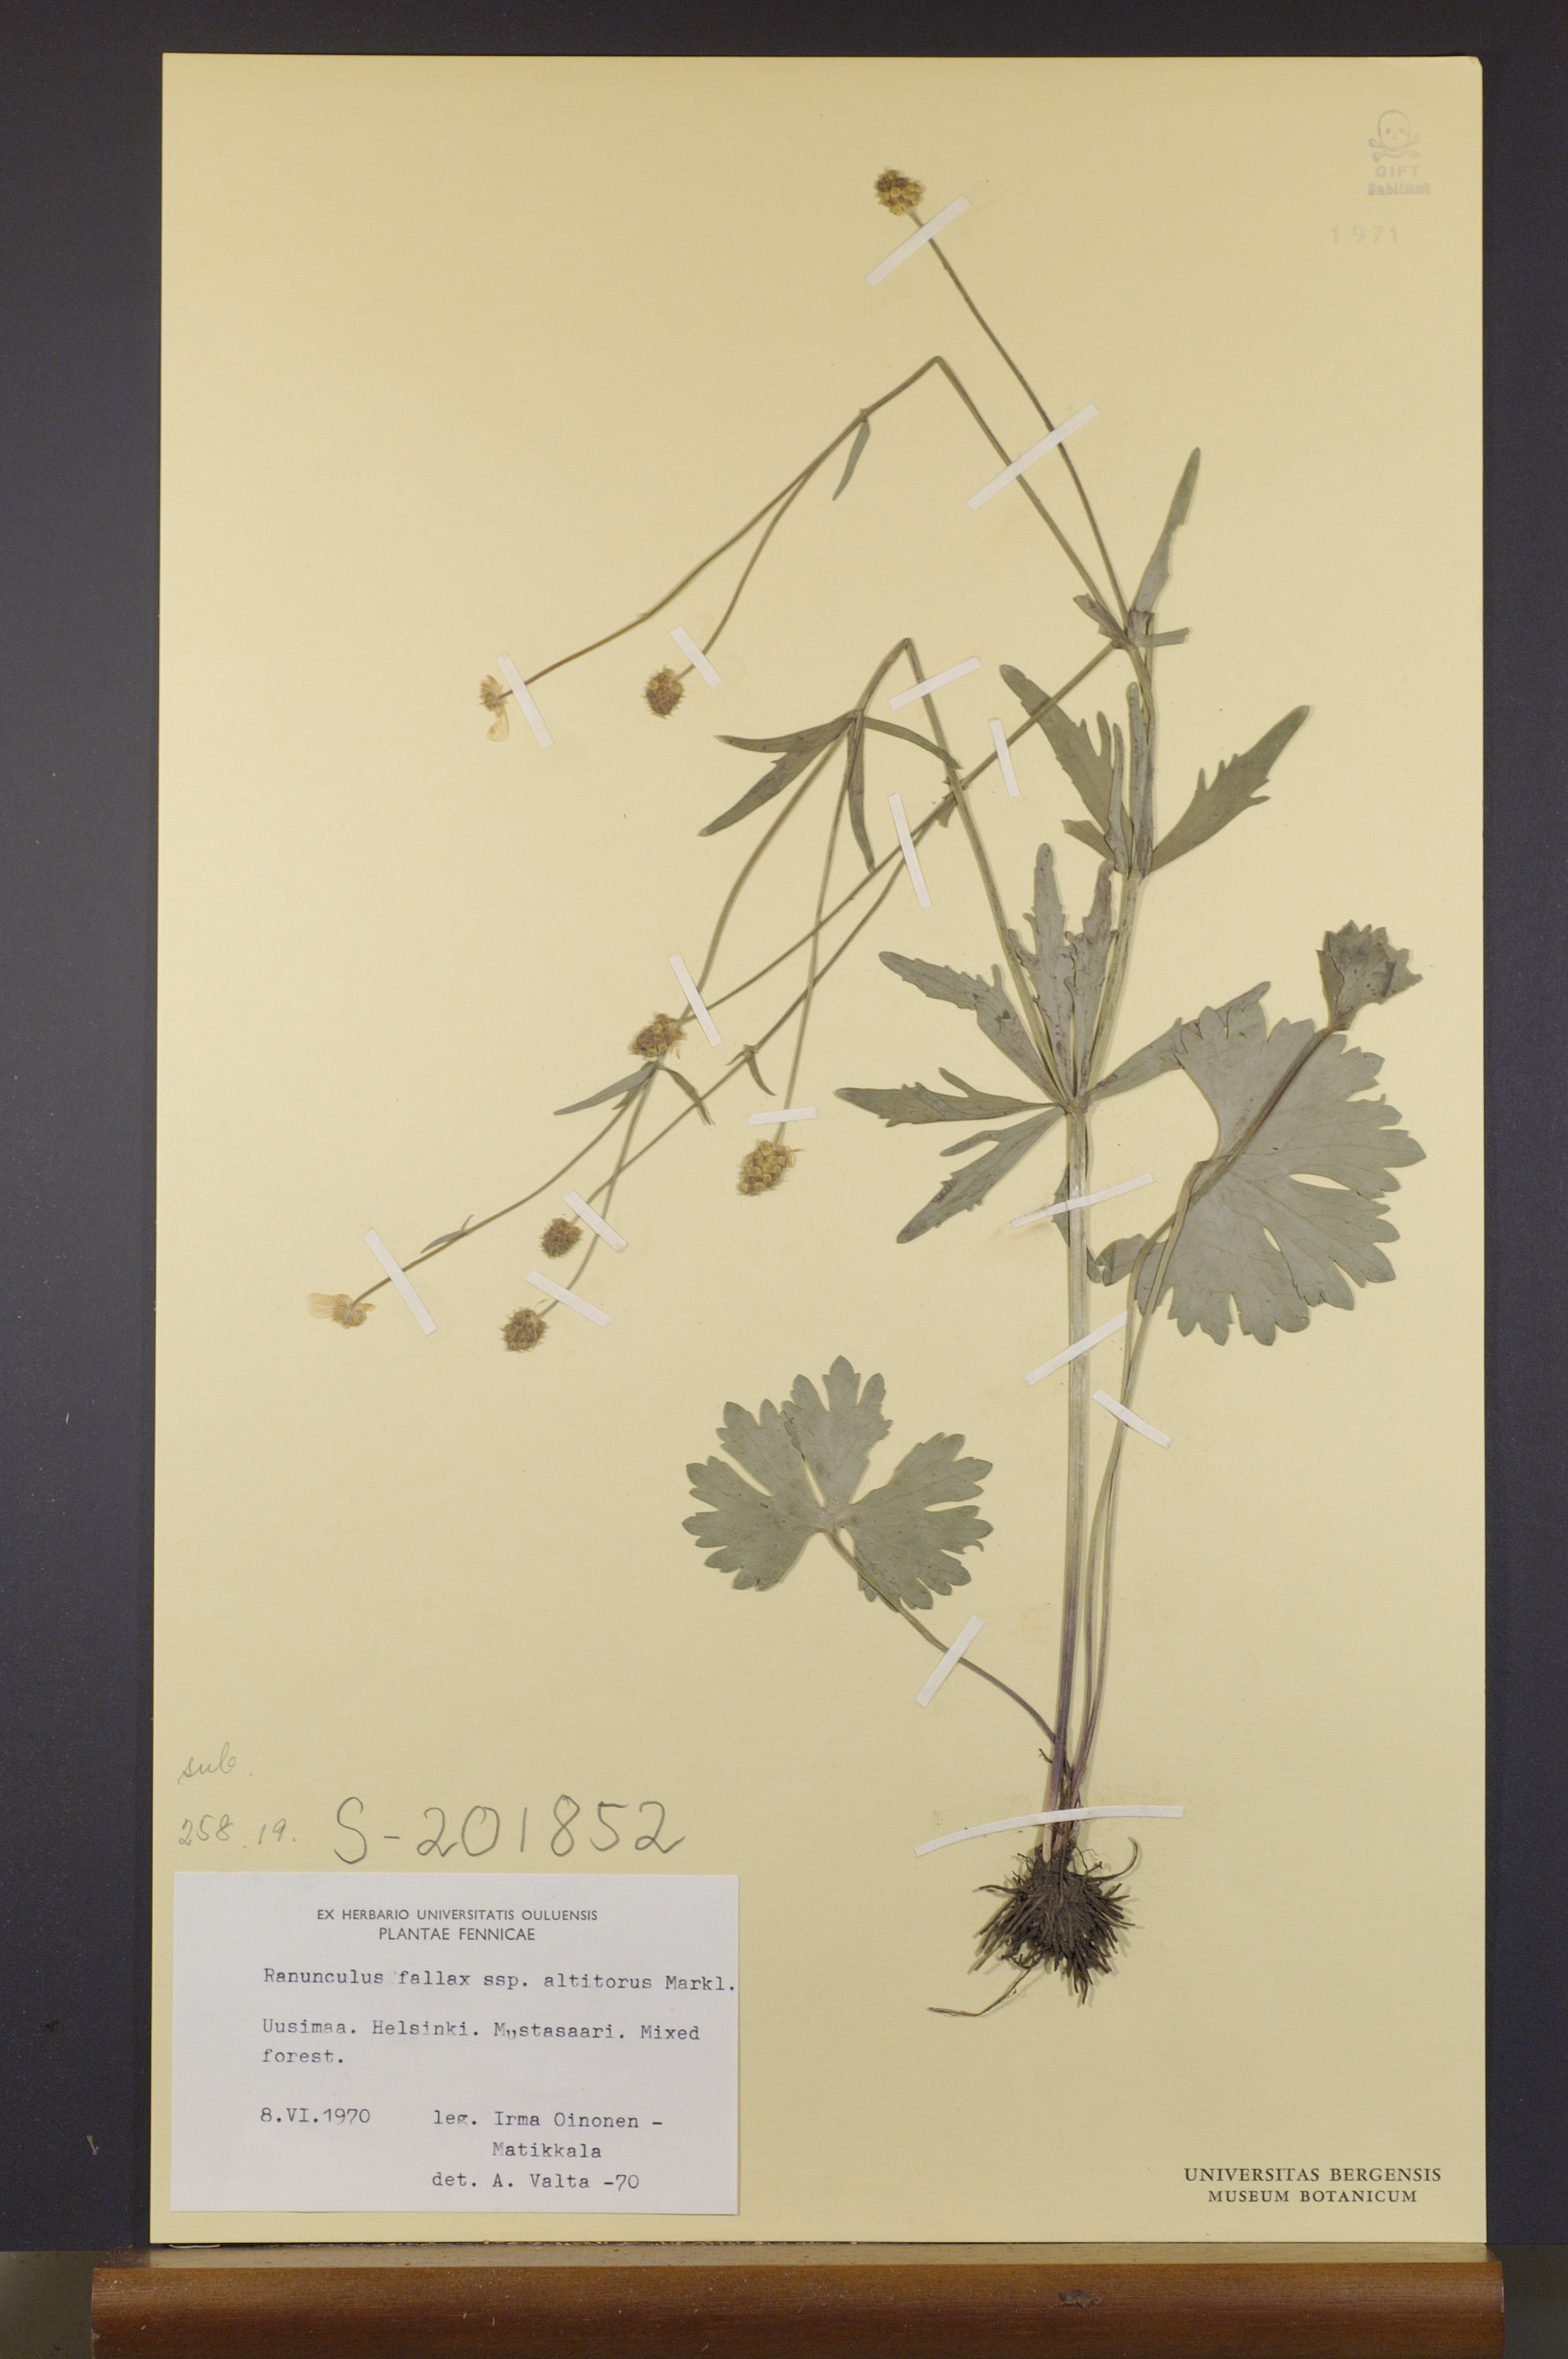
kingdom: Plantae
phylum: Tracheophyta
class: Magnoliopsida
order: Ranunculales
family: Ranunculaceae
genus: Ranunculus
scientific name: Ranunculus altitorus
